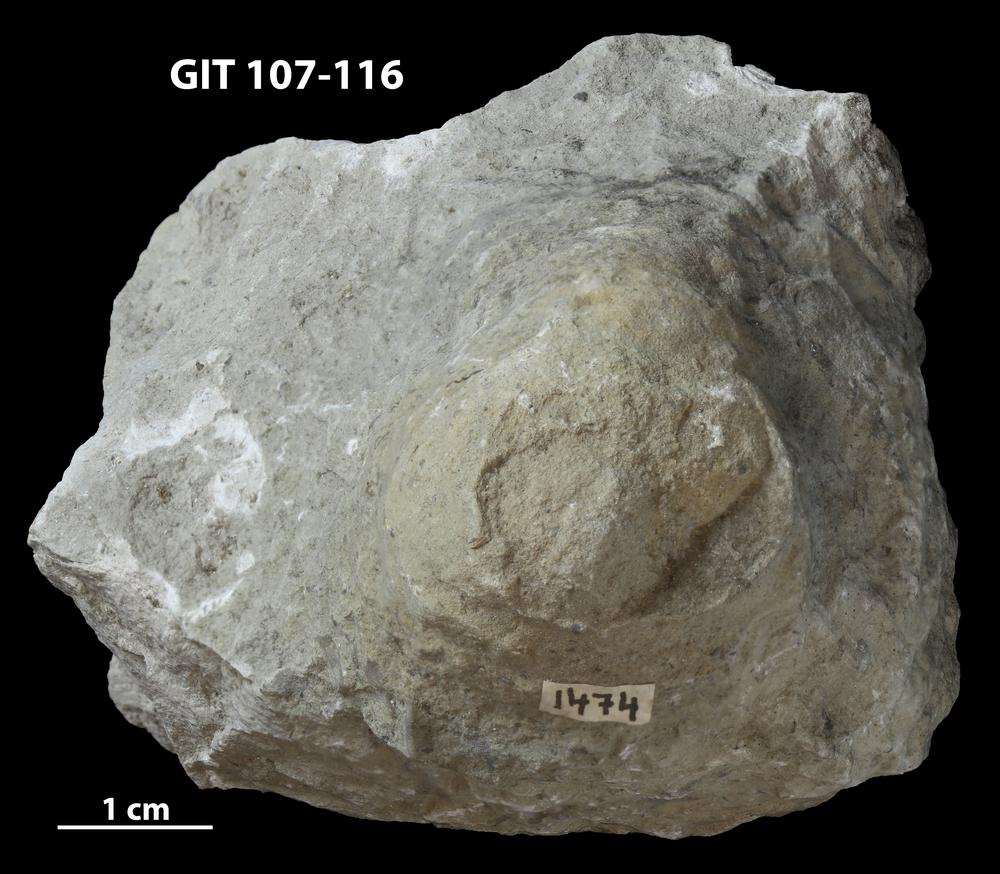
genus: Conichnus
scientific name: Conichnus
